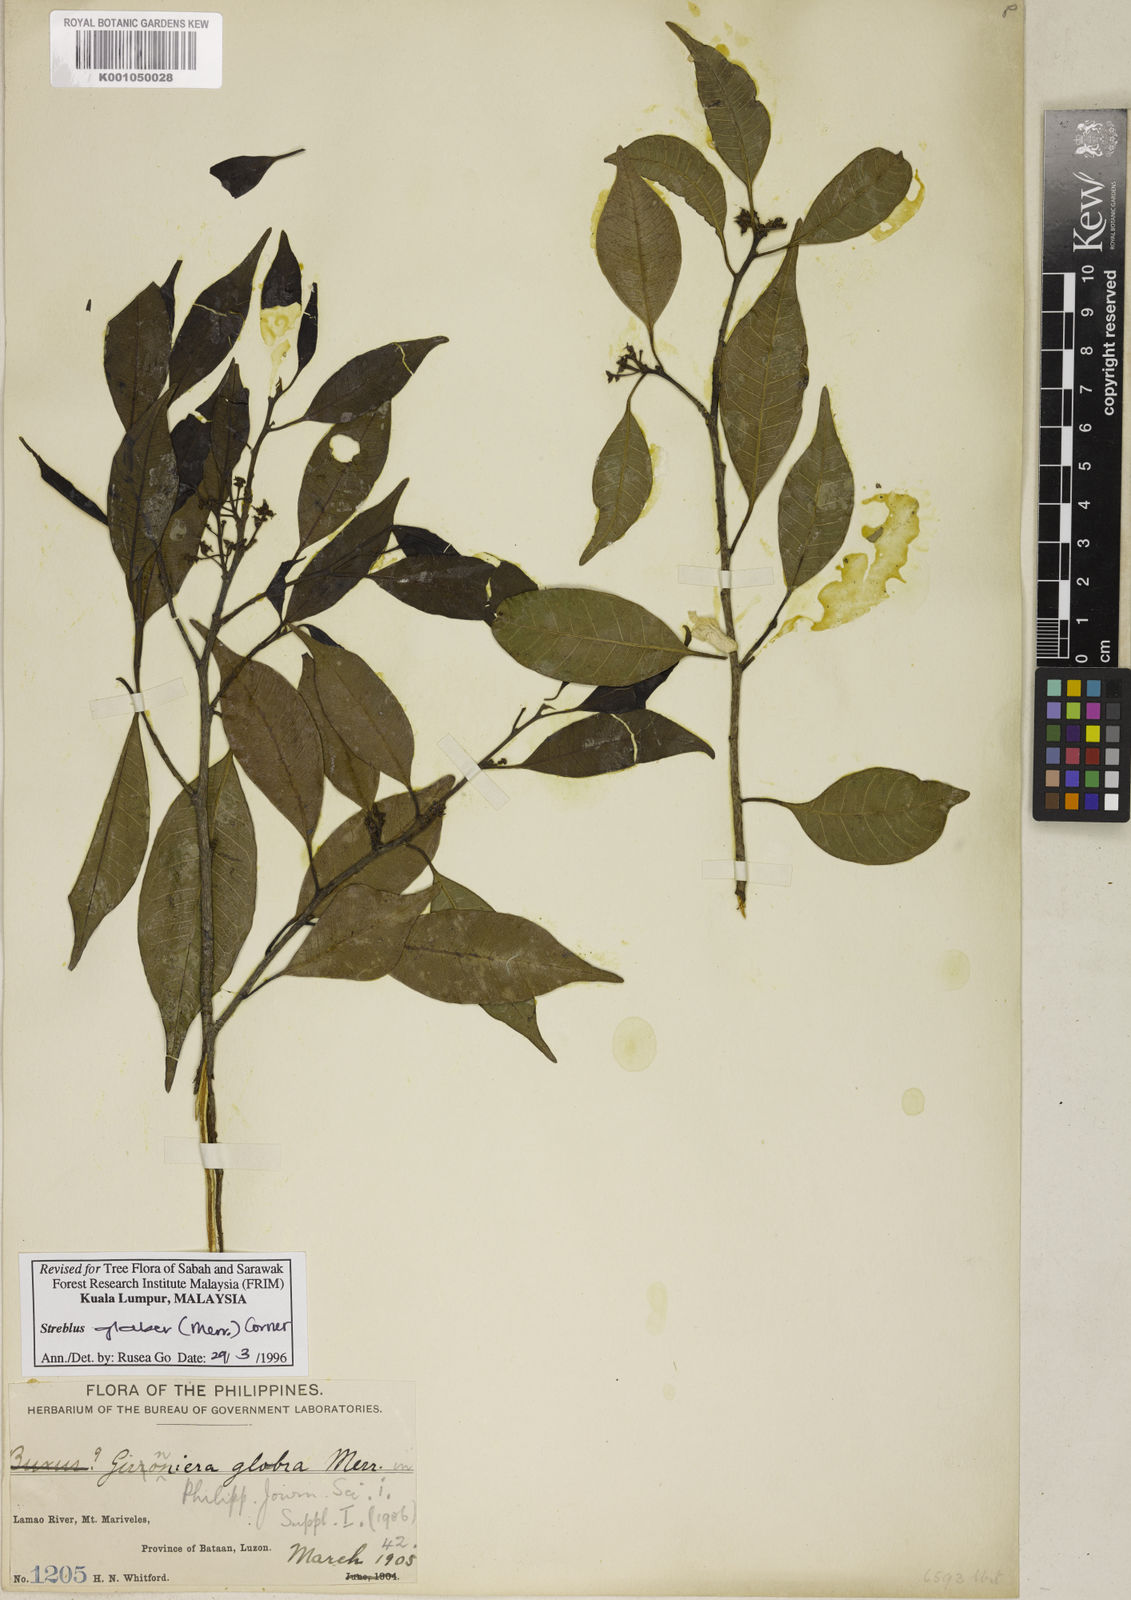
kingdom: Plantae
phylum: Tracheophyta
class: Magnoliopsida
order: Rosales
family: Moraceae
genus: Paratrophis
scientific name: Paratrophis glabra
